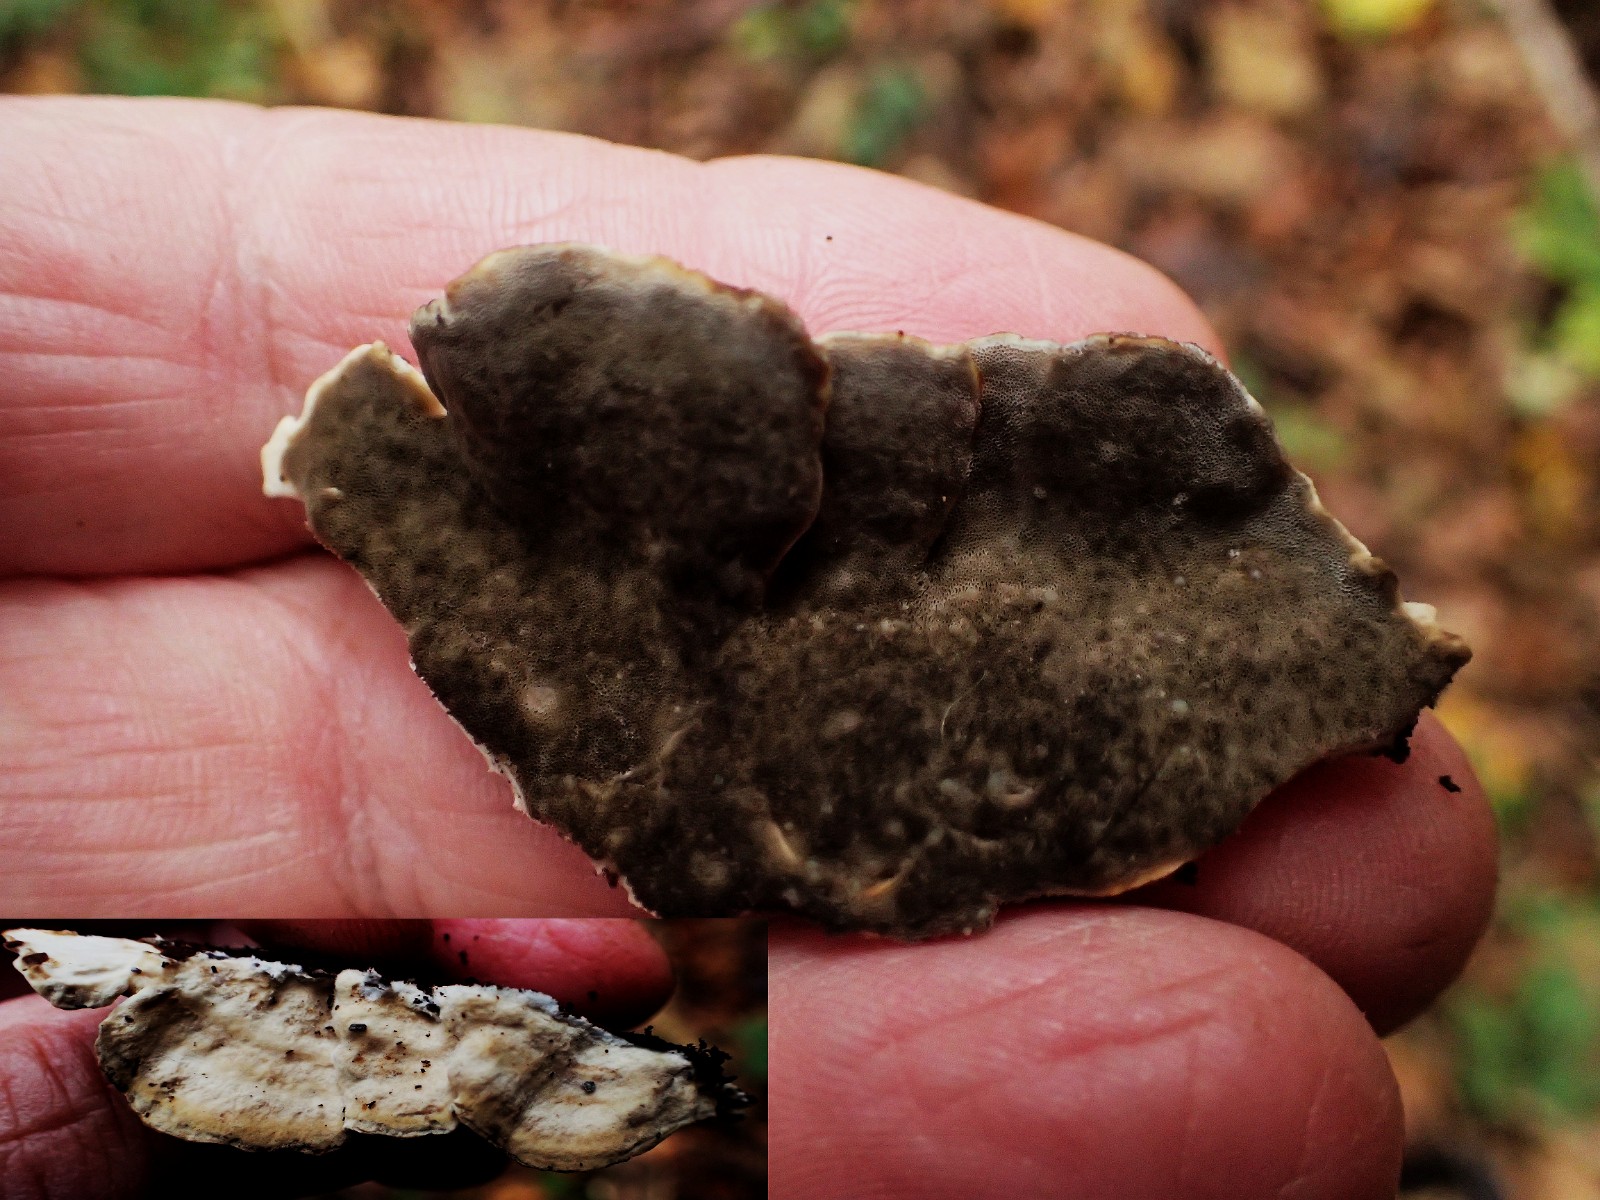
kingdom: Fungi
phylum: Basidiomycota
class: Agaricomycetes
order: Polyporales
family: Phanerochaetaceae
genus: Bjerkandera
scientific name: Bjerkandera adusta
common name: sveden sodporesvamp
